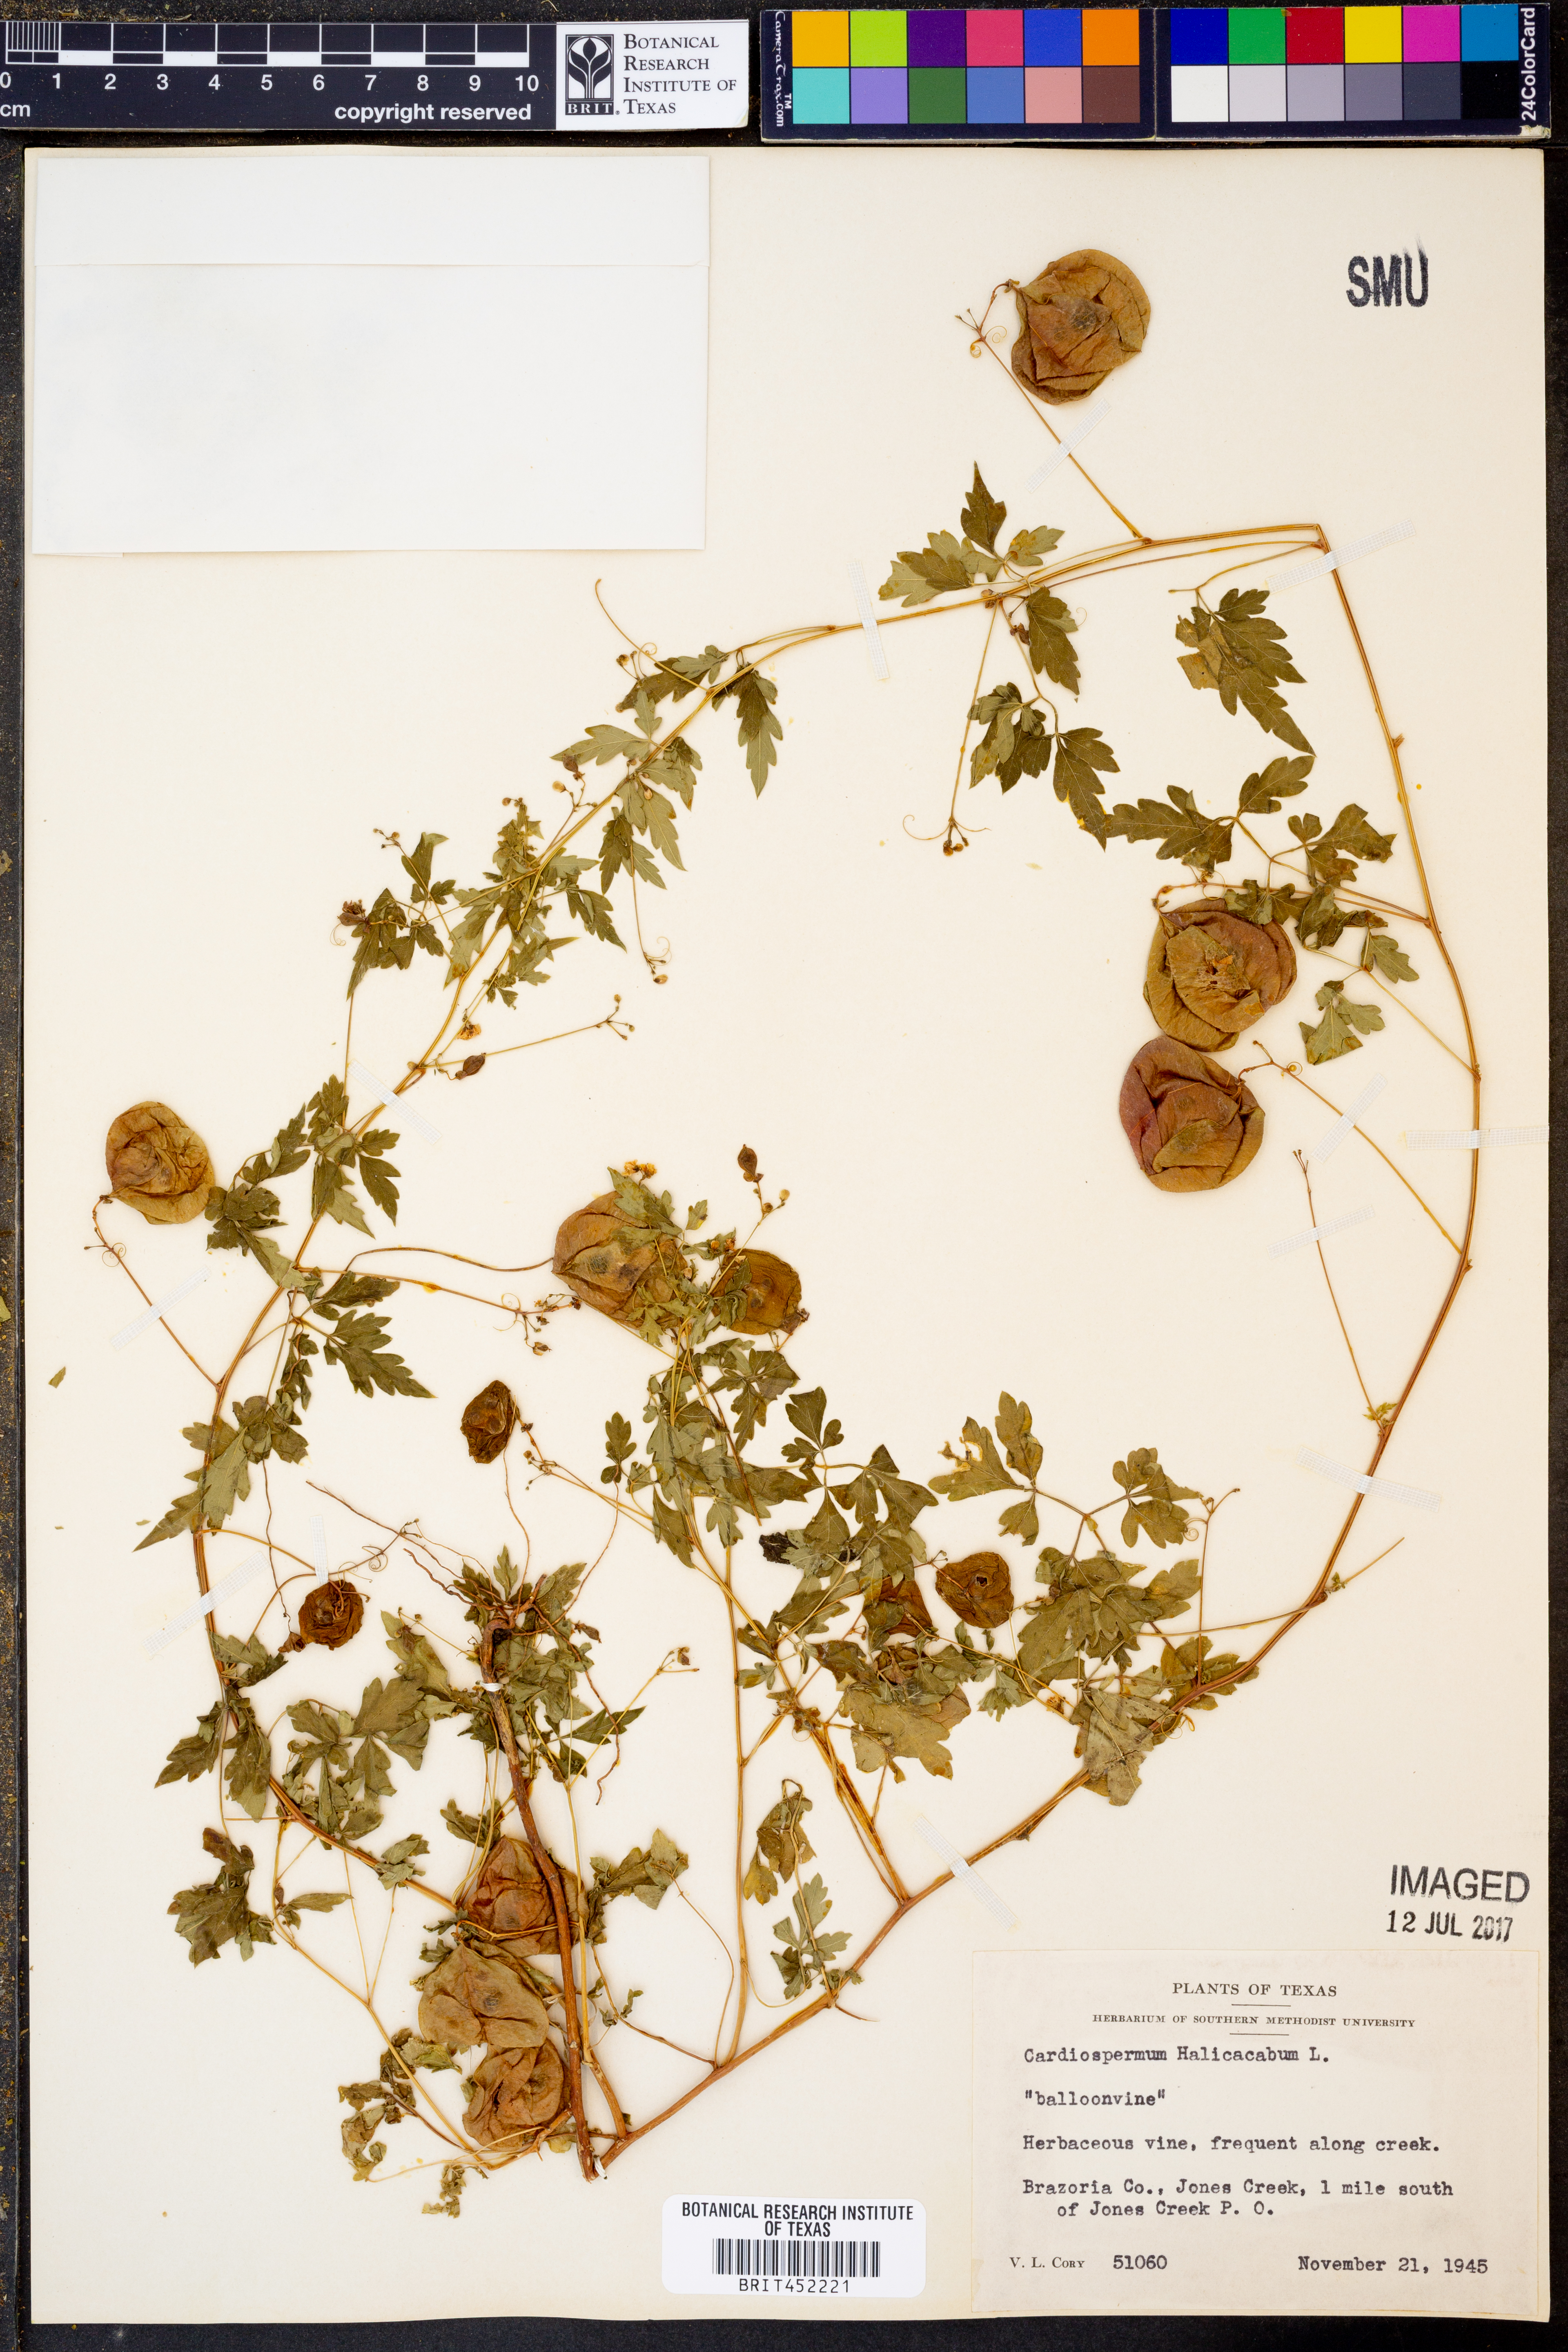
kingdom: Plantae
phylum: Tracheophyta
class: Magnoliopsida
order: Sapindales
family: Sapindaceae
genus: Cardiospermum
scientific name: Cardiospermum halicacabum
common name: Balloon vine
